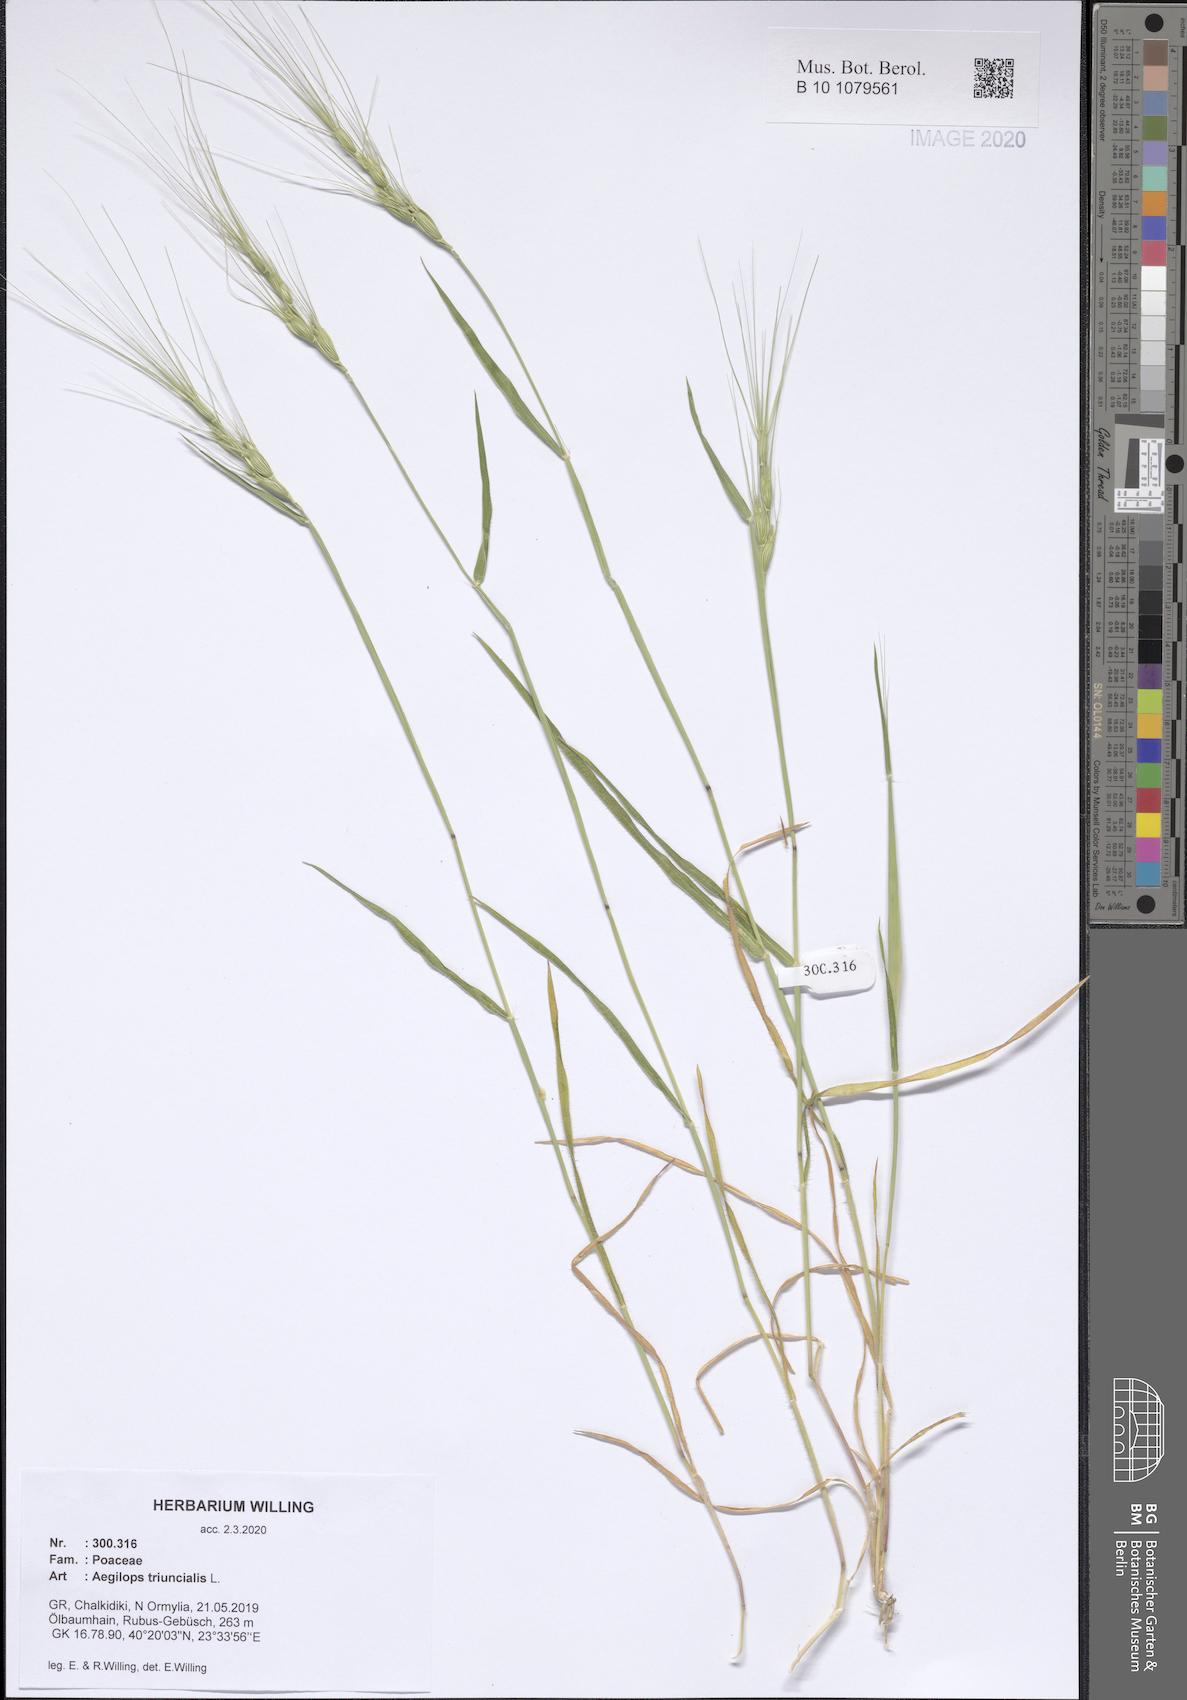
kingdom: Plantae
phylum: Tracheophyta
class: Liliopsida
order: Poales
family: Poaceae
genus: Aegilops
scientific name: Aegilops triuncialis
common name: Barb goat grass
